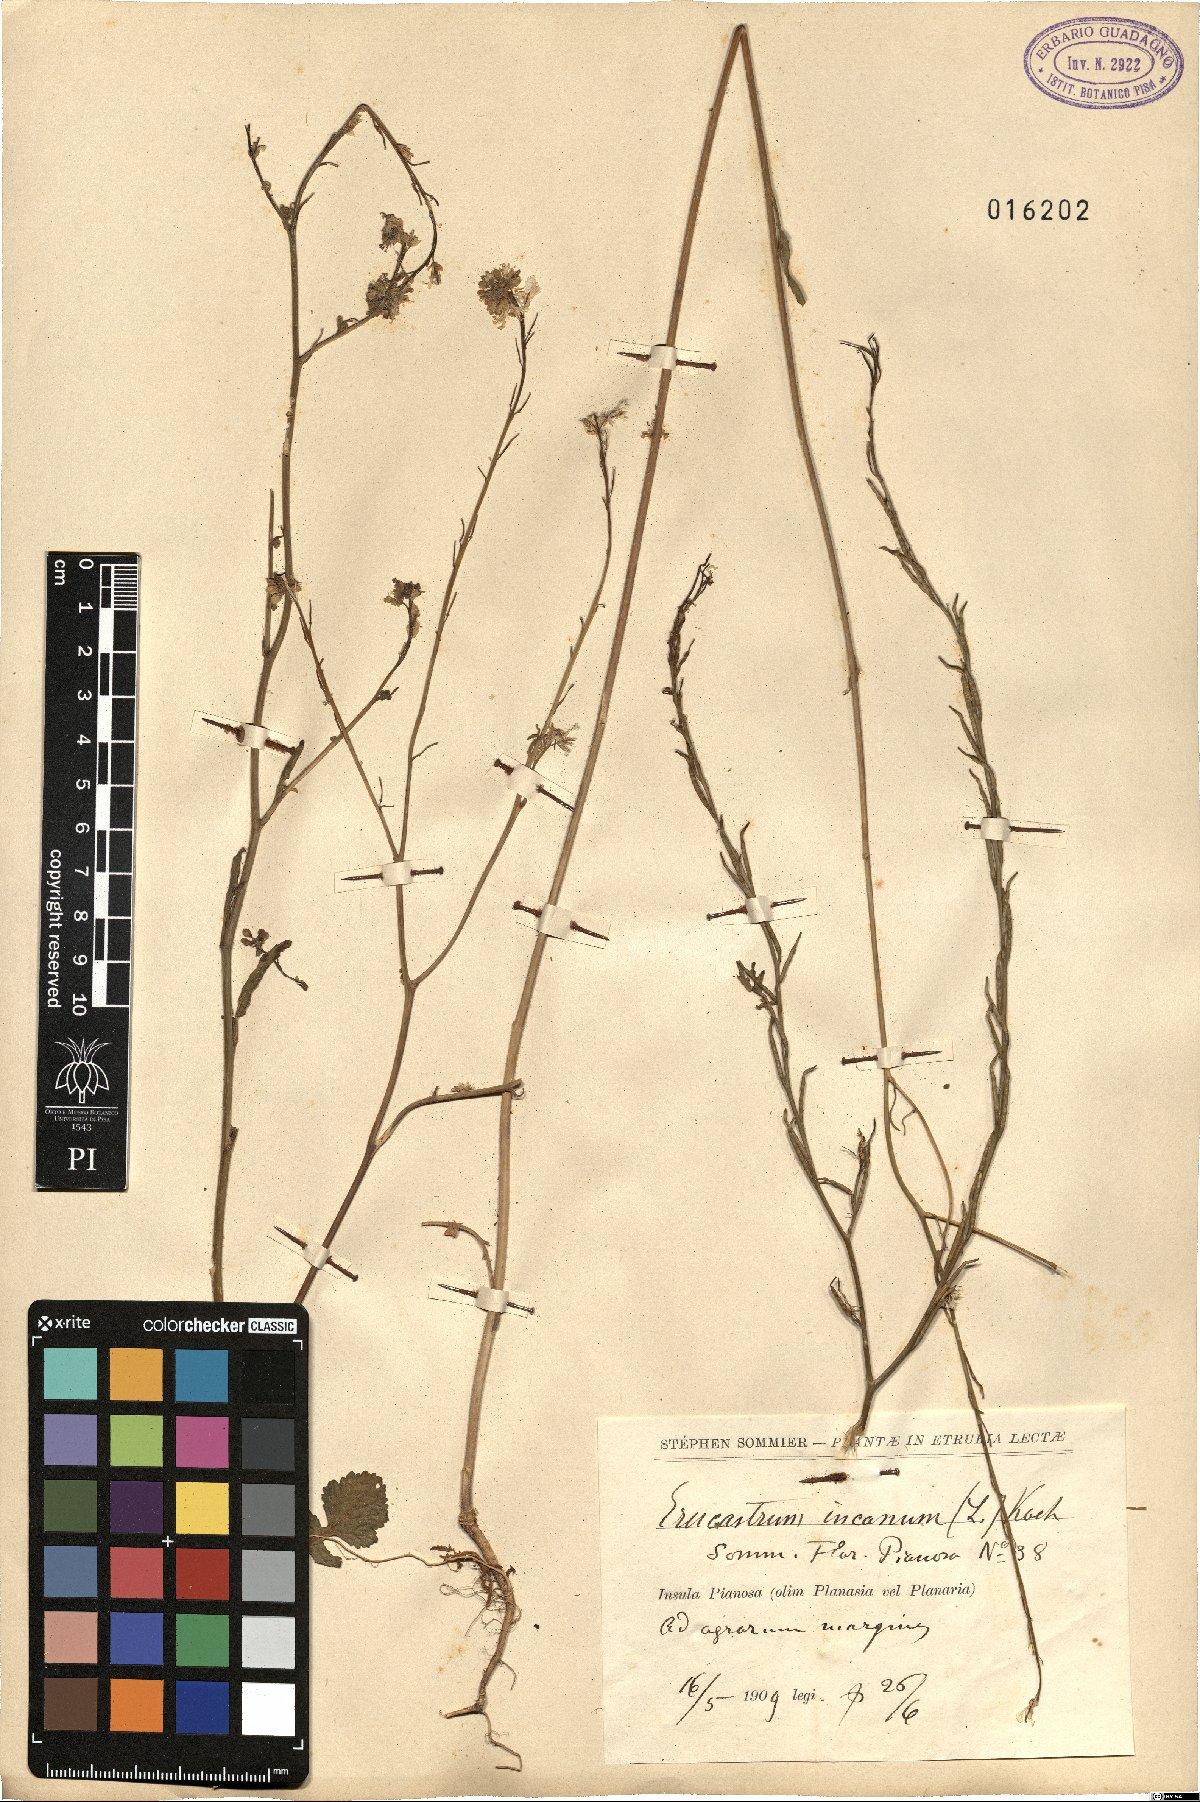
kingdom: Plantae
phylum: Tracheophyta
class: Magnoliopsida
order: Brassicales
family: Brassicaceae
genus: Hirschfeldia
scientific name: Hirschfeldia incana
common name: Hoary mustard
